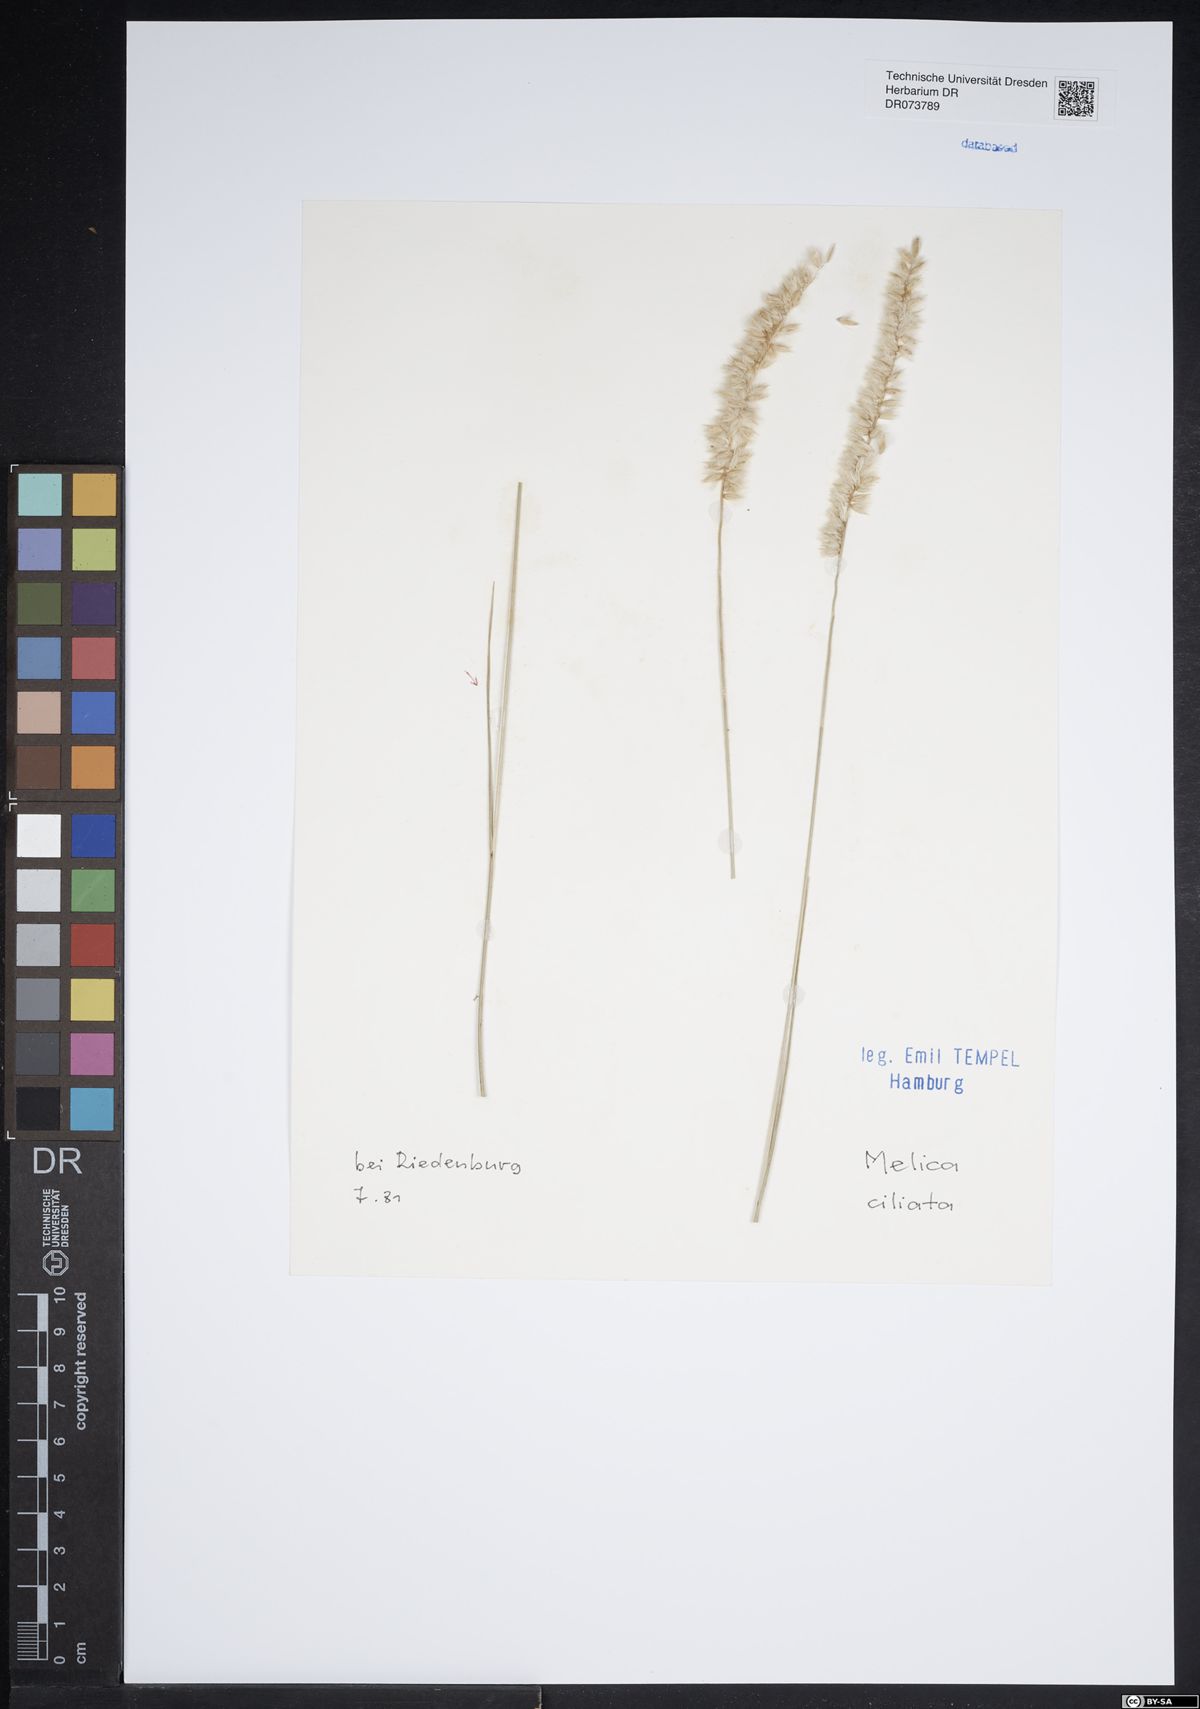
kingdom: Plantae
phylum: Tracheophyta
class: Liliopsida
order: Poales
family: Poaceae
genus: Melica
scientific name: Melica ciliata
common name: Hairy melicgrass
